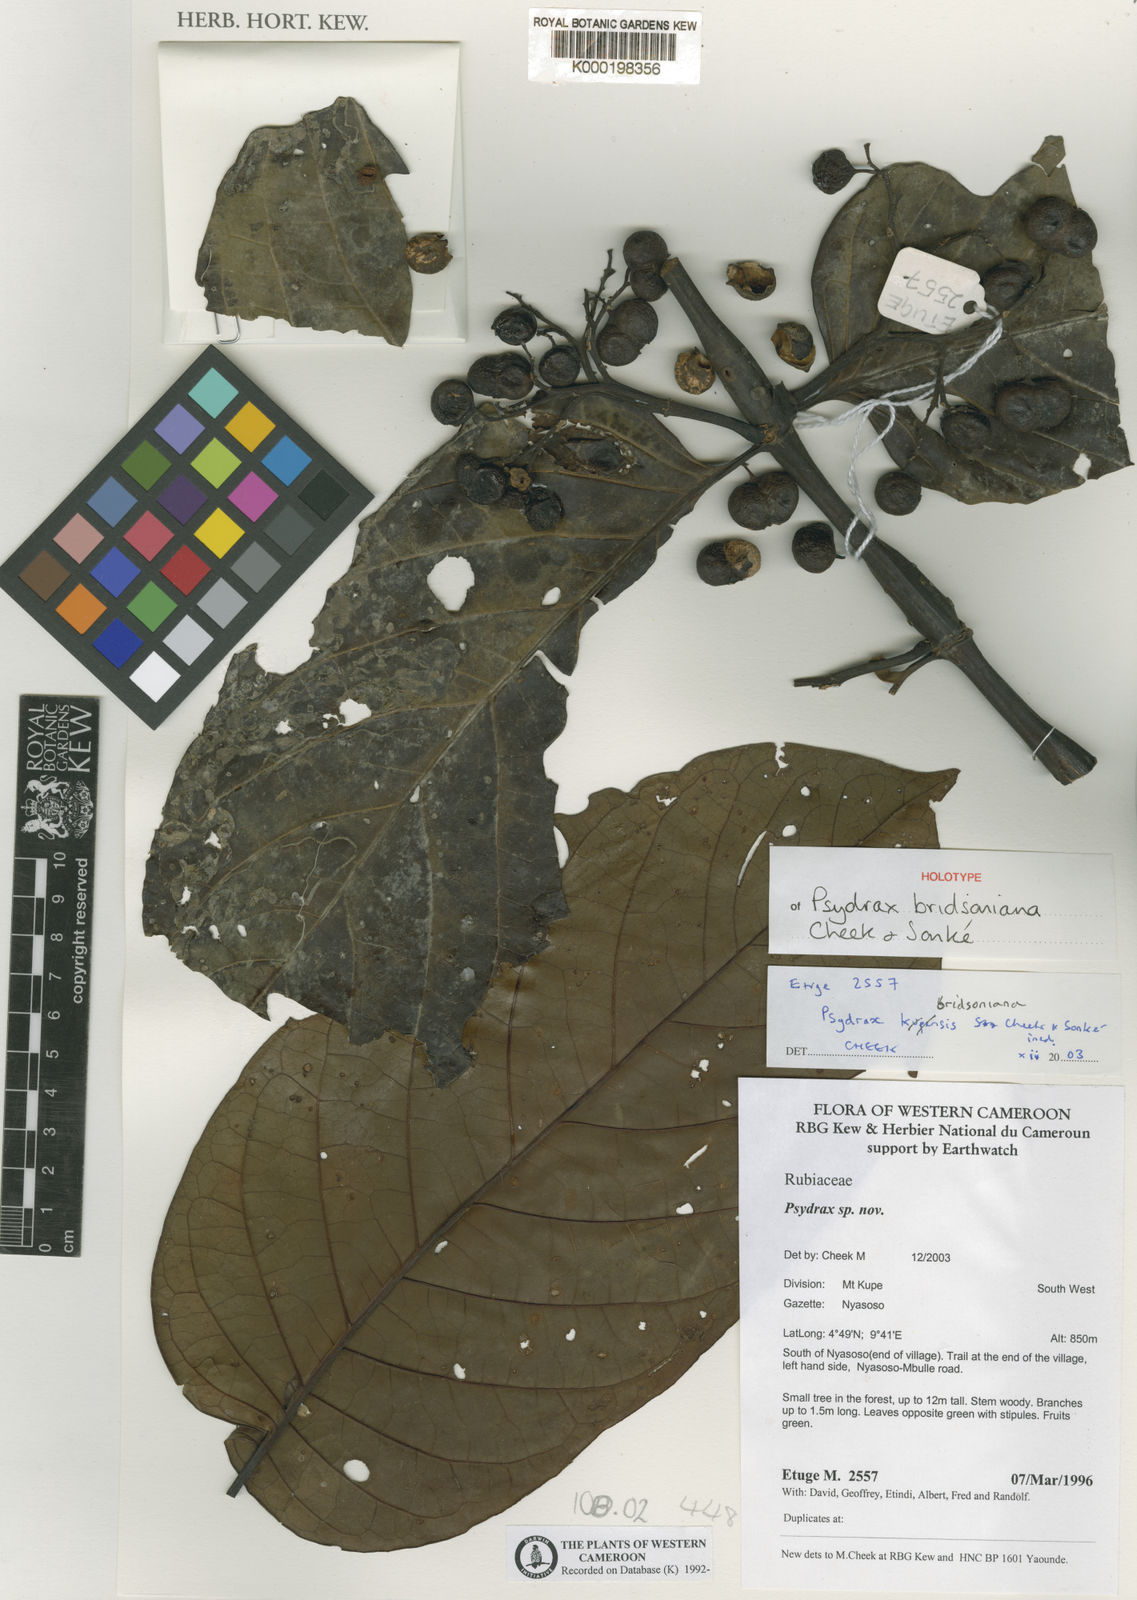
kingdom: Plantae
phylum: Tracheophyta
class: Magnoliopsida
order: Gentianales
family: Rubiaceae
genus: Psydrax
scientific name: Psydrax bridsonianus
